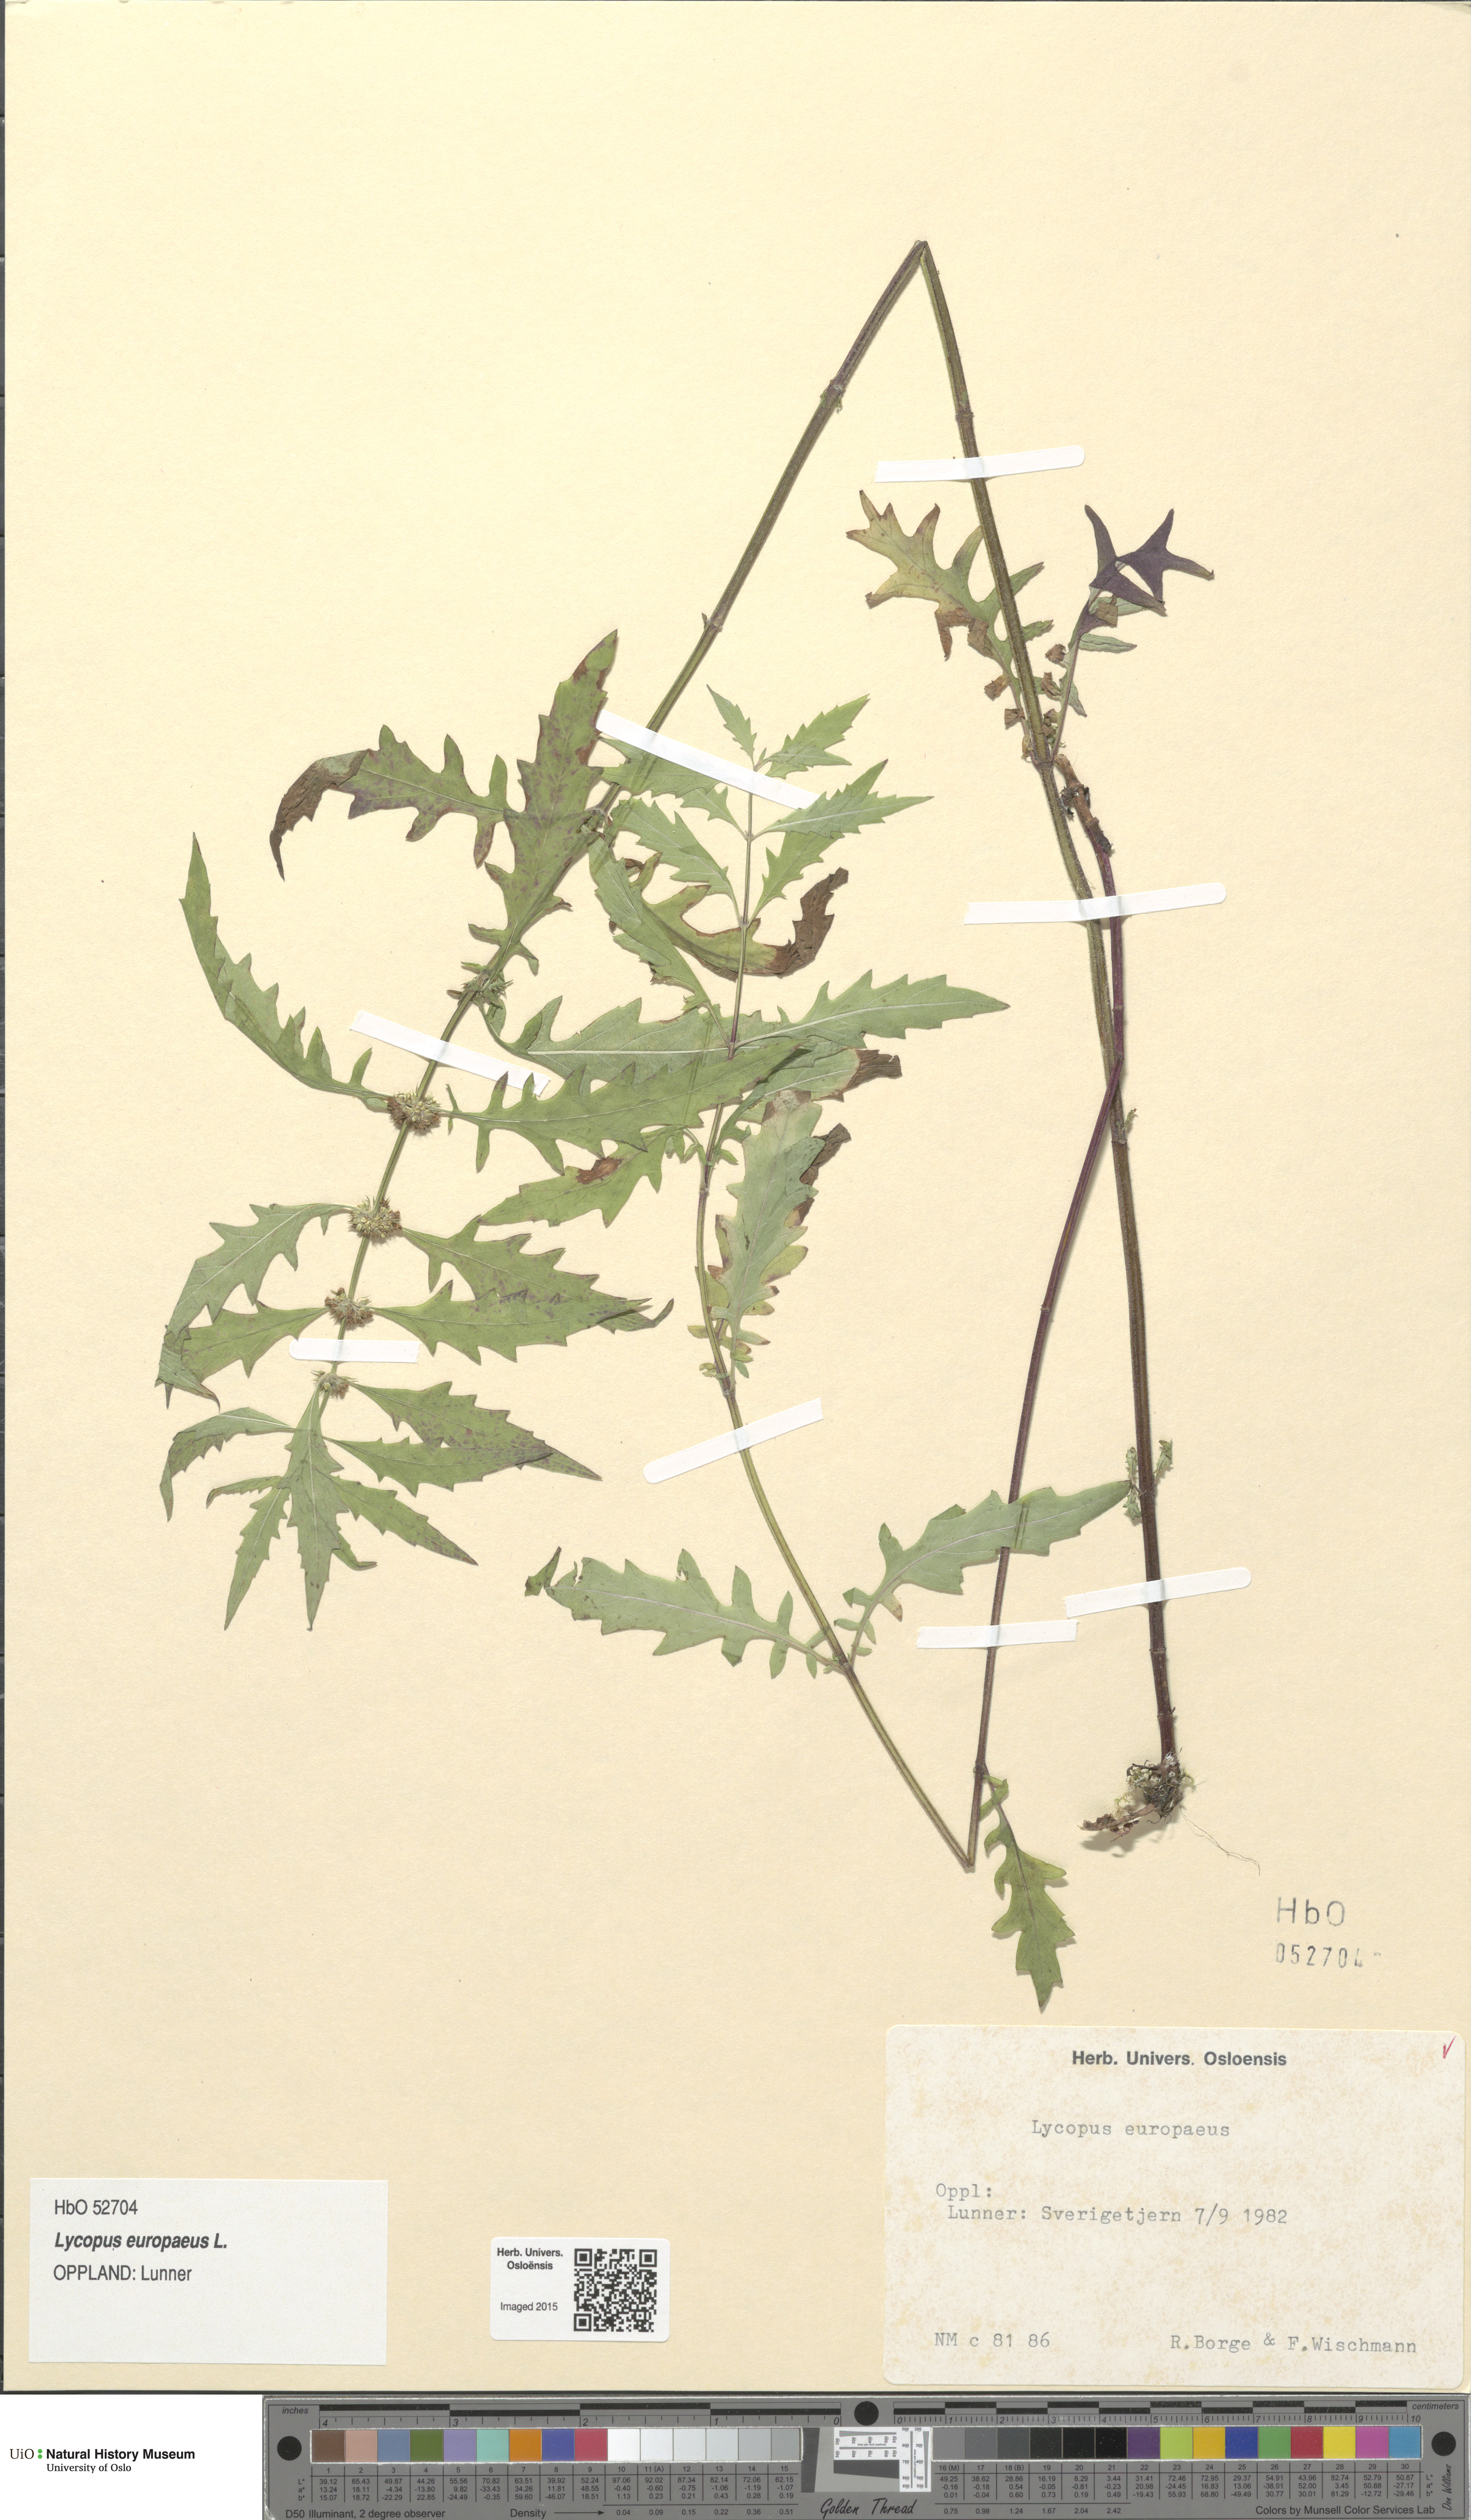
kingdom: Plantae
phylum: Tracheophyta
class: Magnoliopsida
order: Lamiales
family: Lamiaceae
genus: Lycopus
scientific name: Lycopus europaeus
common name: European bugleweed
